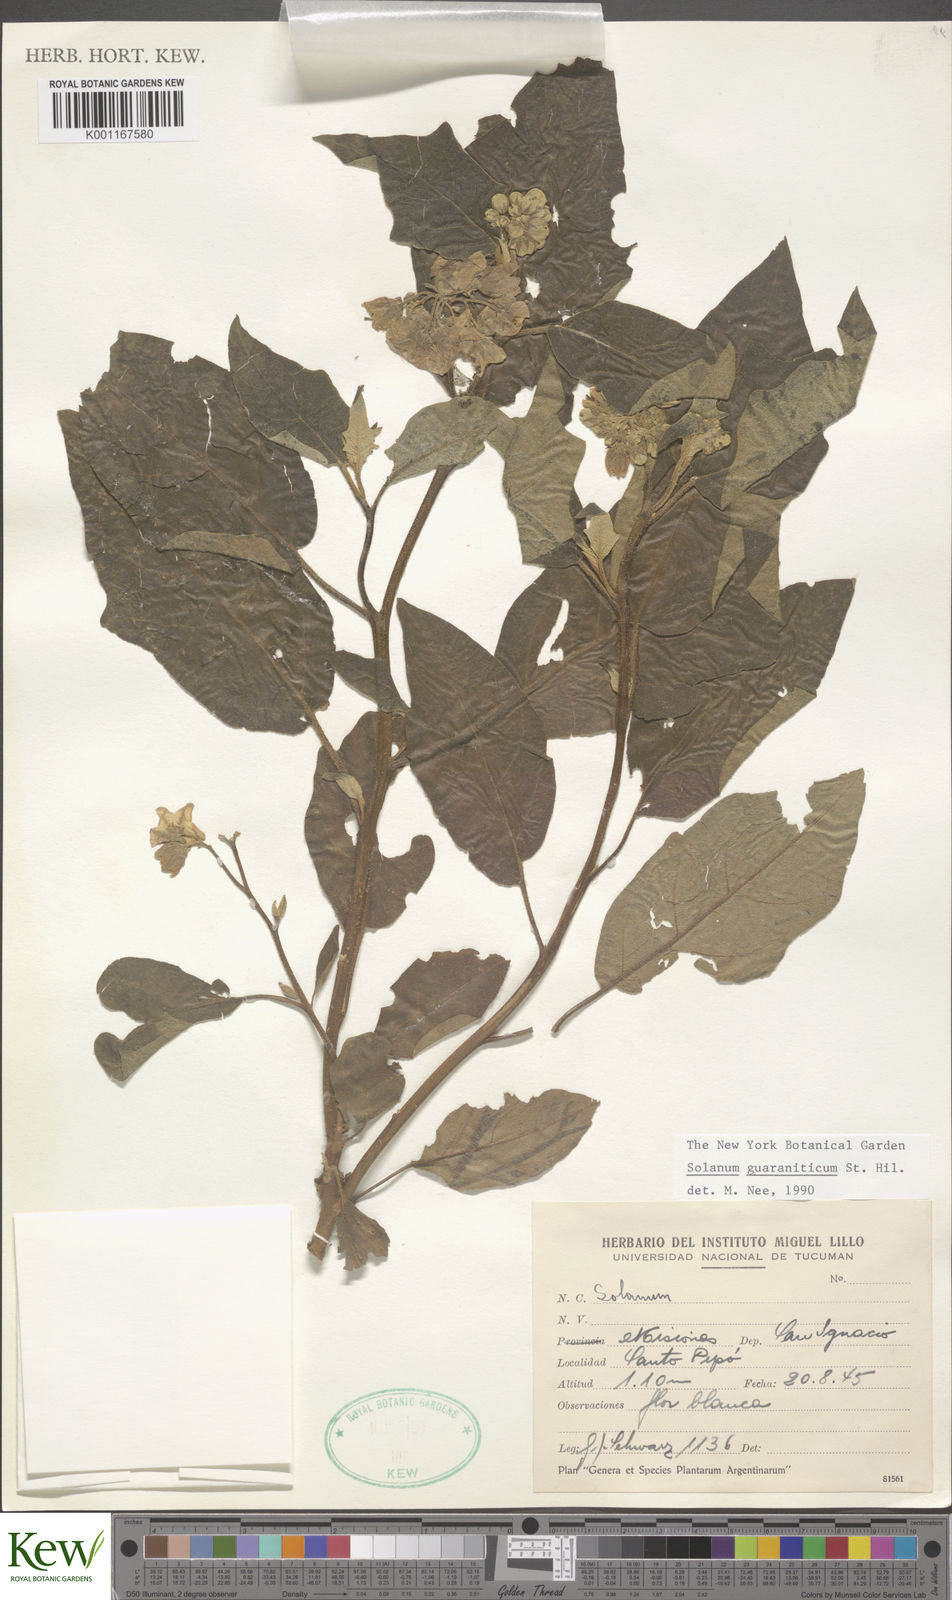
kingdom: Plantae
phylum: Tracheophyta
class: Magnoliopsida
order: Solanales
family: Solanaceae
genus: Solanum
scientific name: Solanum guaraniticum
